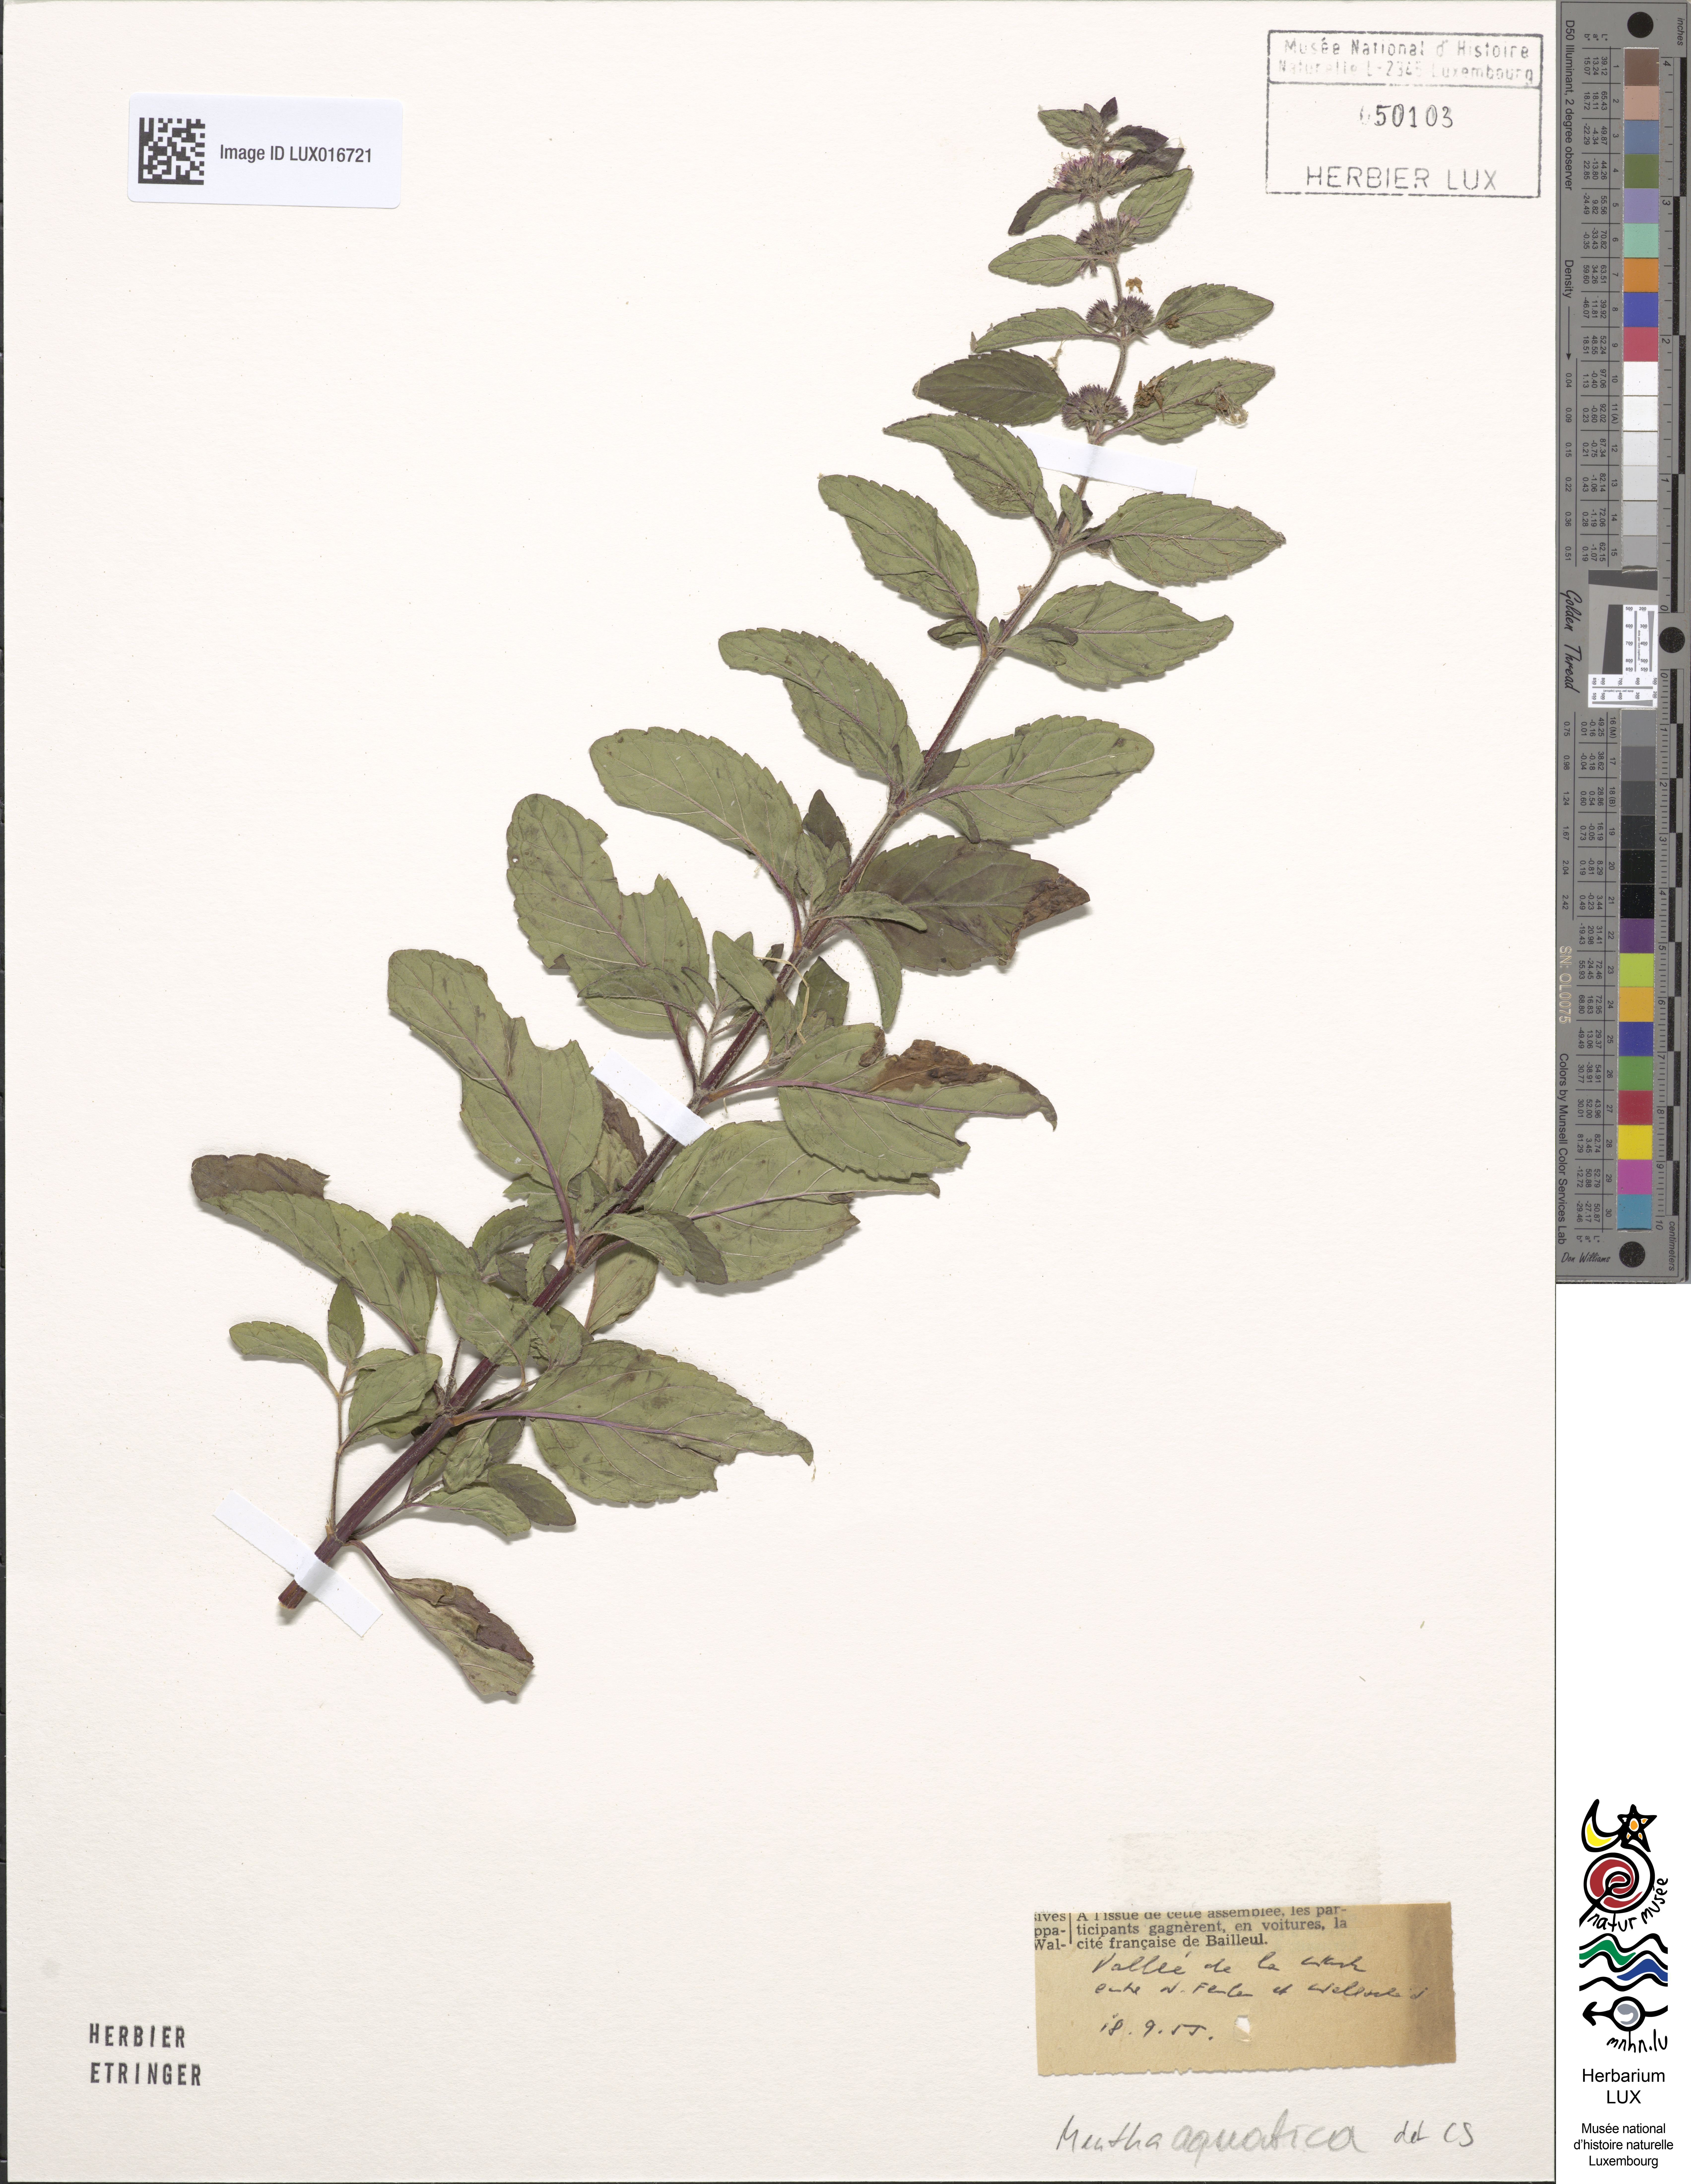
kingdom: Plantae
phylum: Tracheophyta
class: Magnoliopsida
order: Lamiales
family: Lamiaceae
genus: Mentha
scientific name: Mentha aquatica
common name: Water mint
